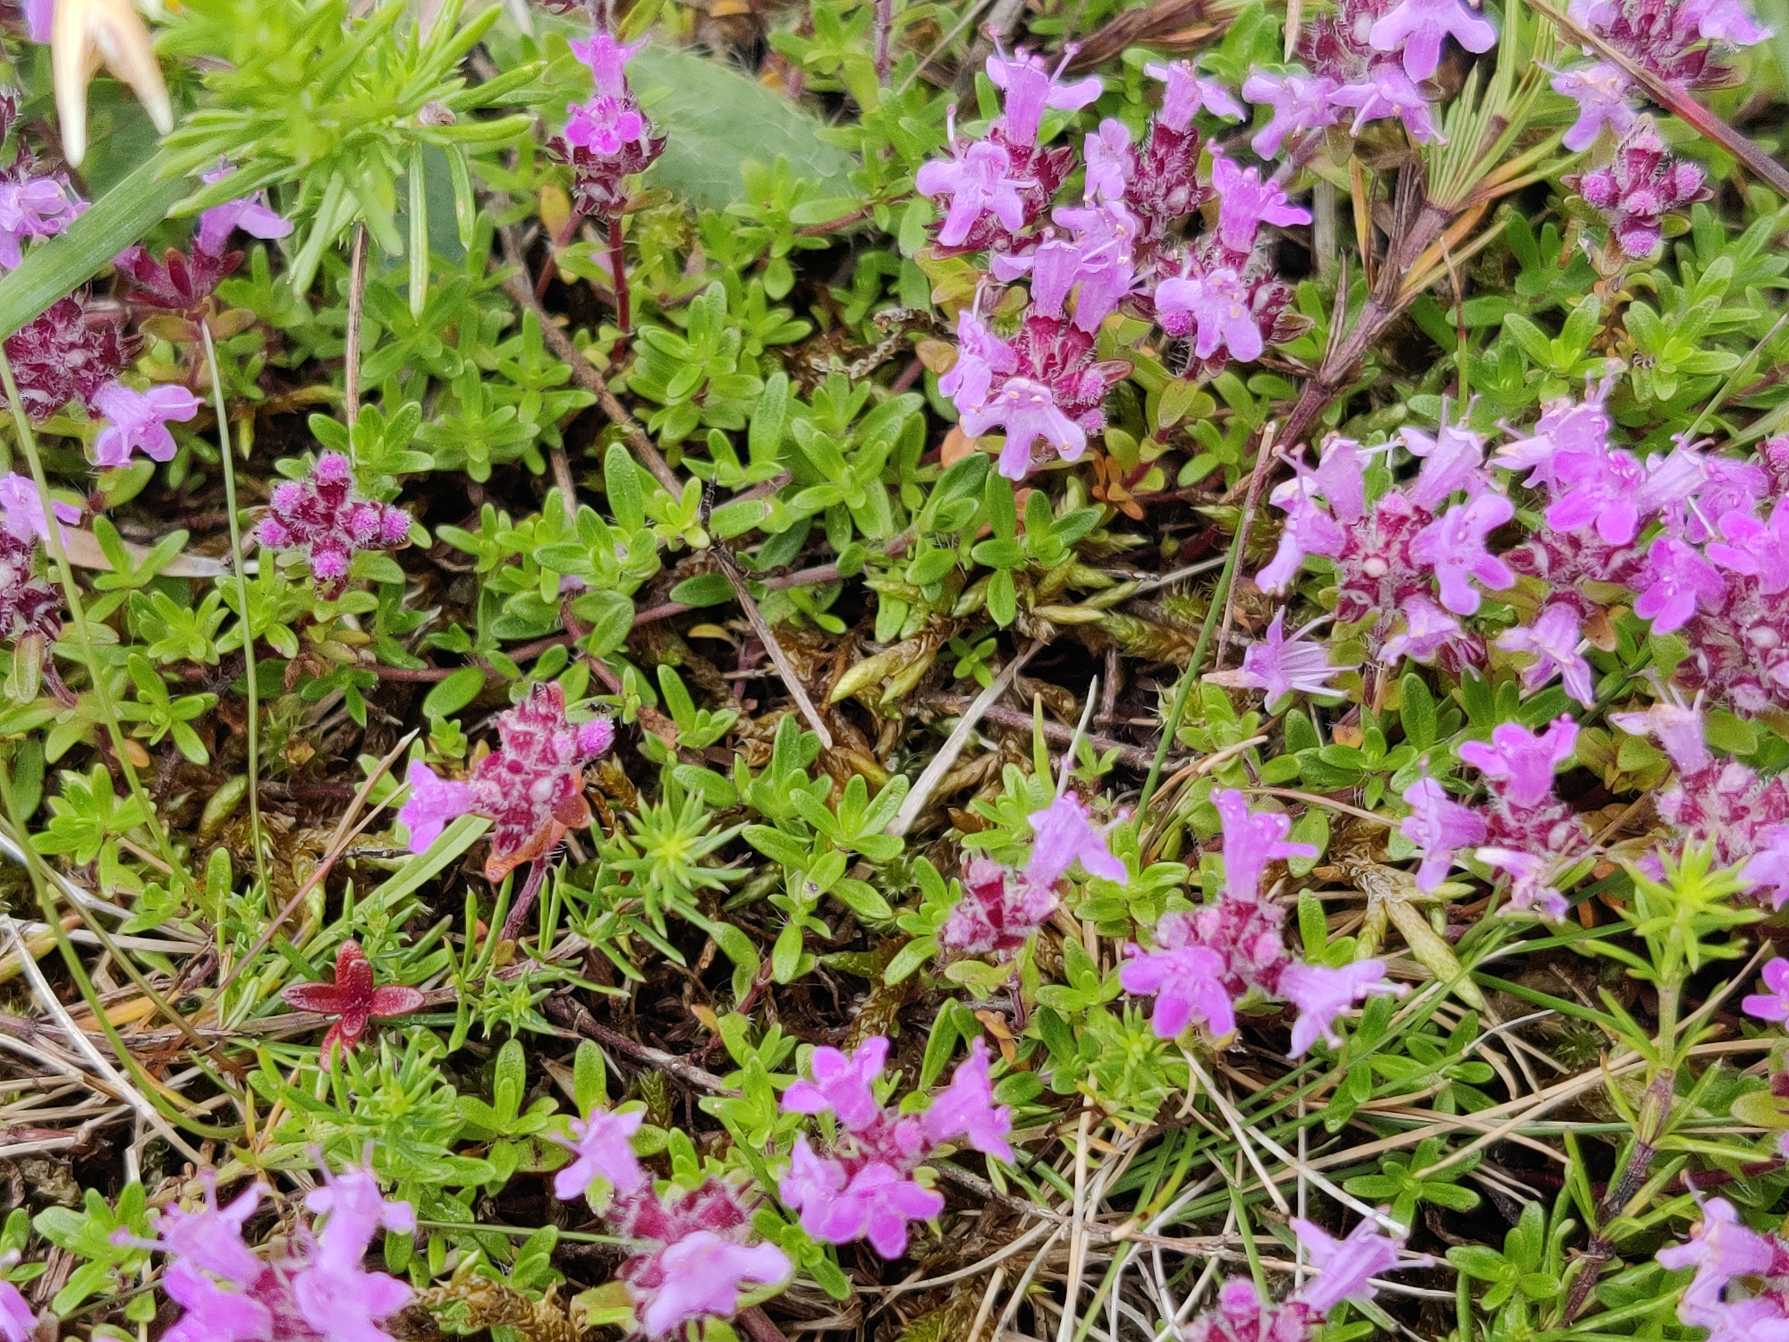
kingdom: Plantae
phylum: Tracheophyta
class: Magnoliopsida
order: Lamiales
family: Lamiaceae
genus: Thymus
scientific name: Thymus serpyllum
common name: Smalbladet timian
